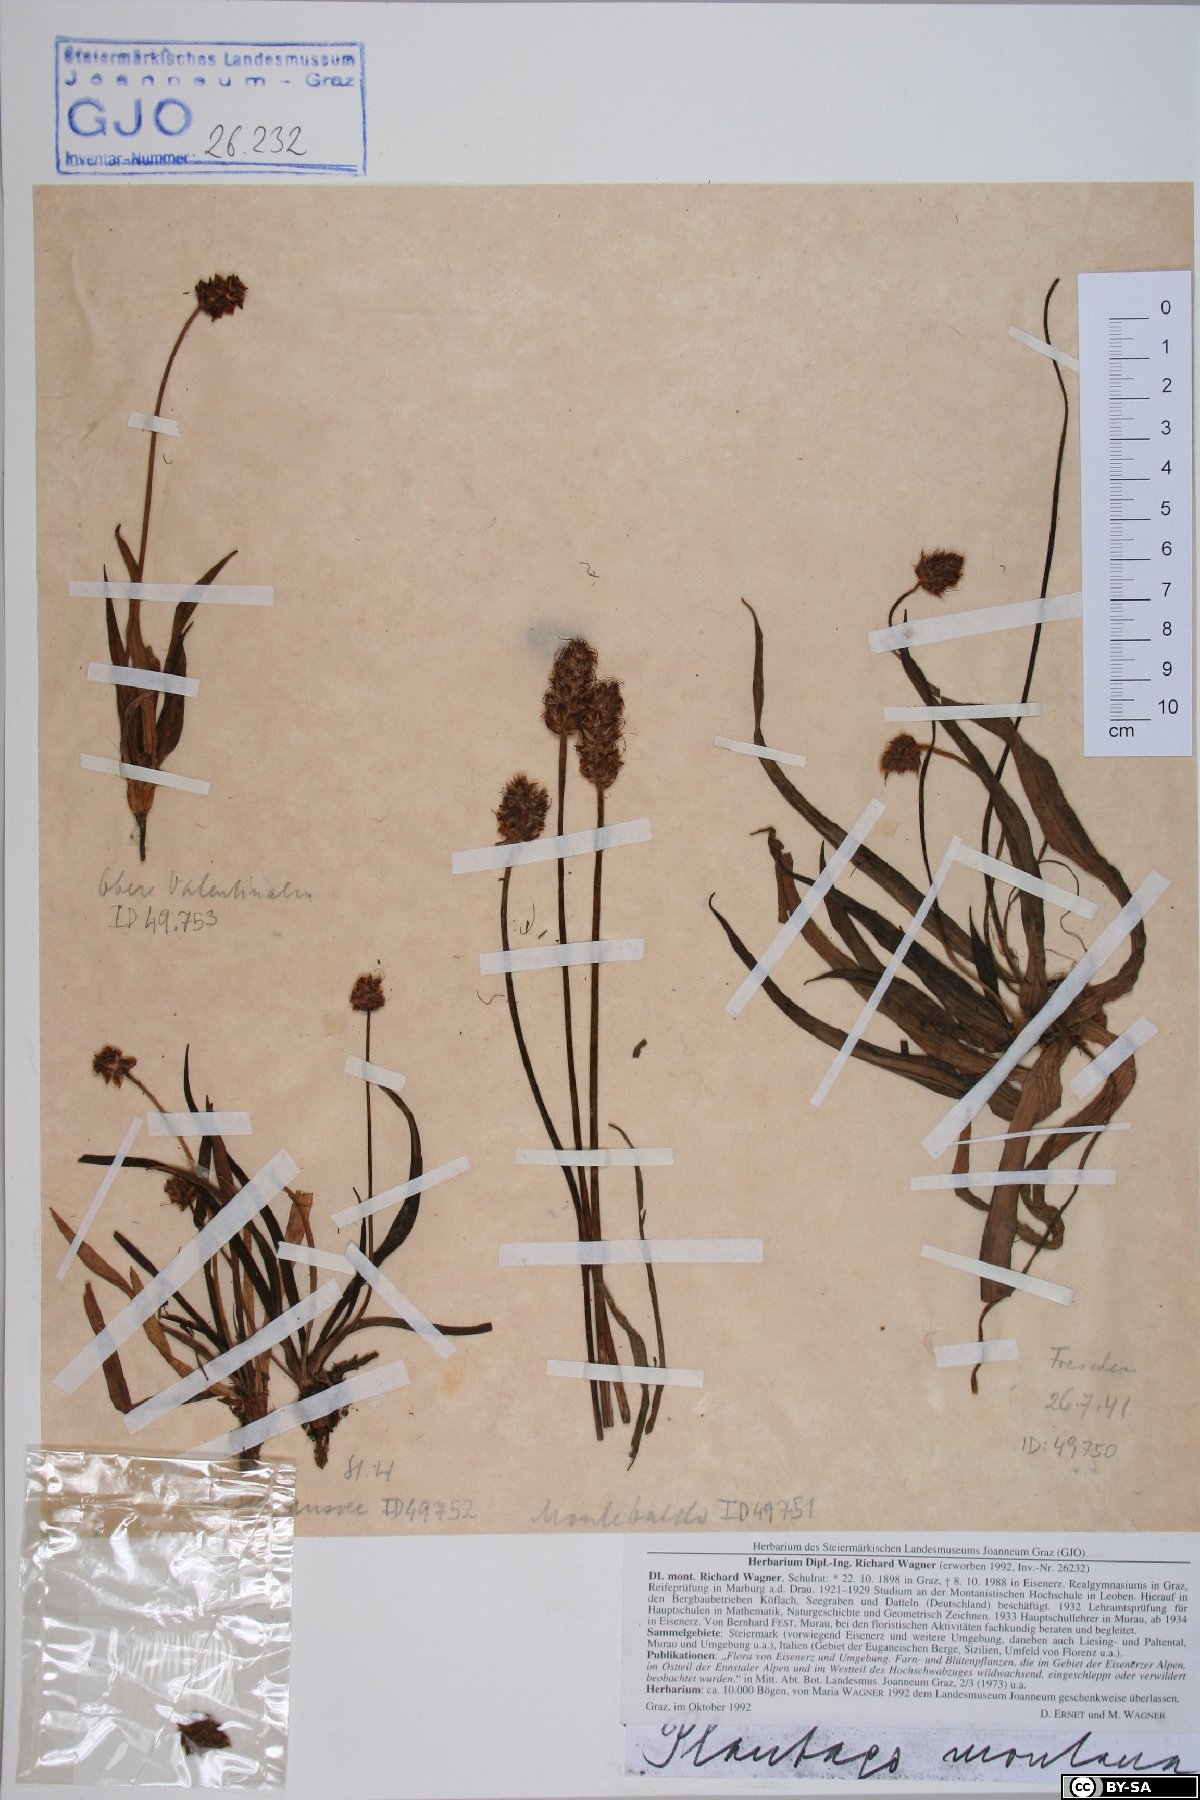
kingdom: Plantae
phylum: Tracheophyta
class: Magnoliopsida
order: Lamiales
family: Plantaginaceae
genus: Plantago
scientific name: Plantago atrata
